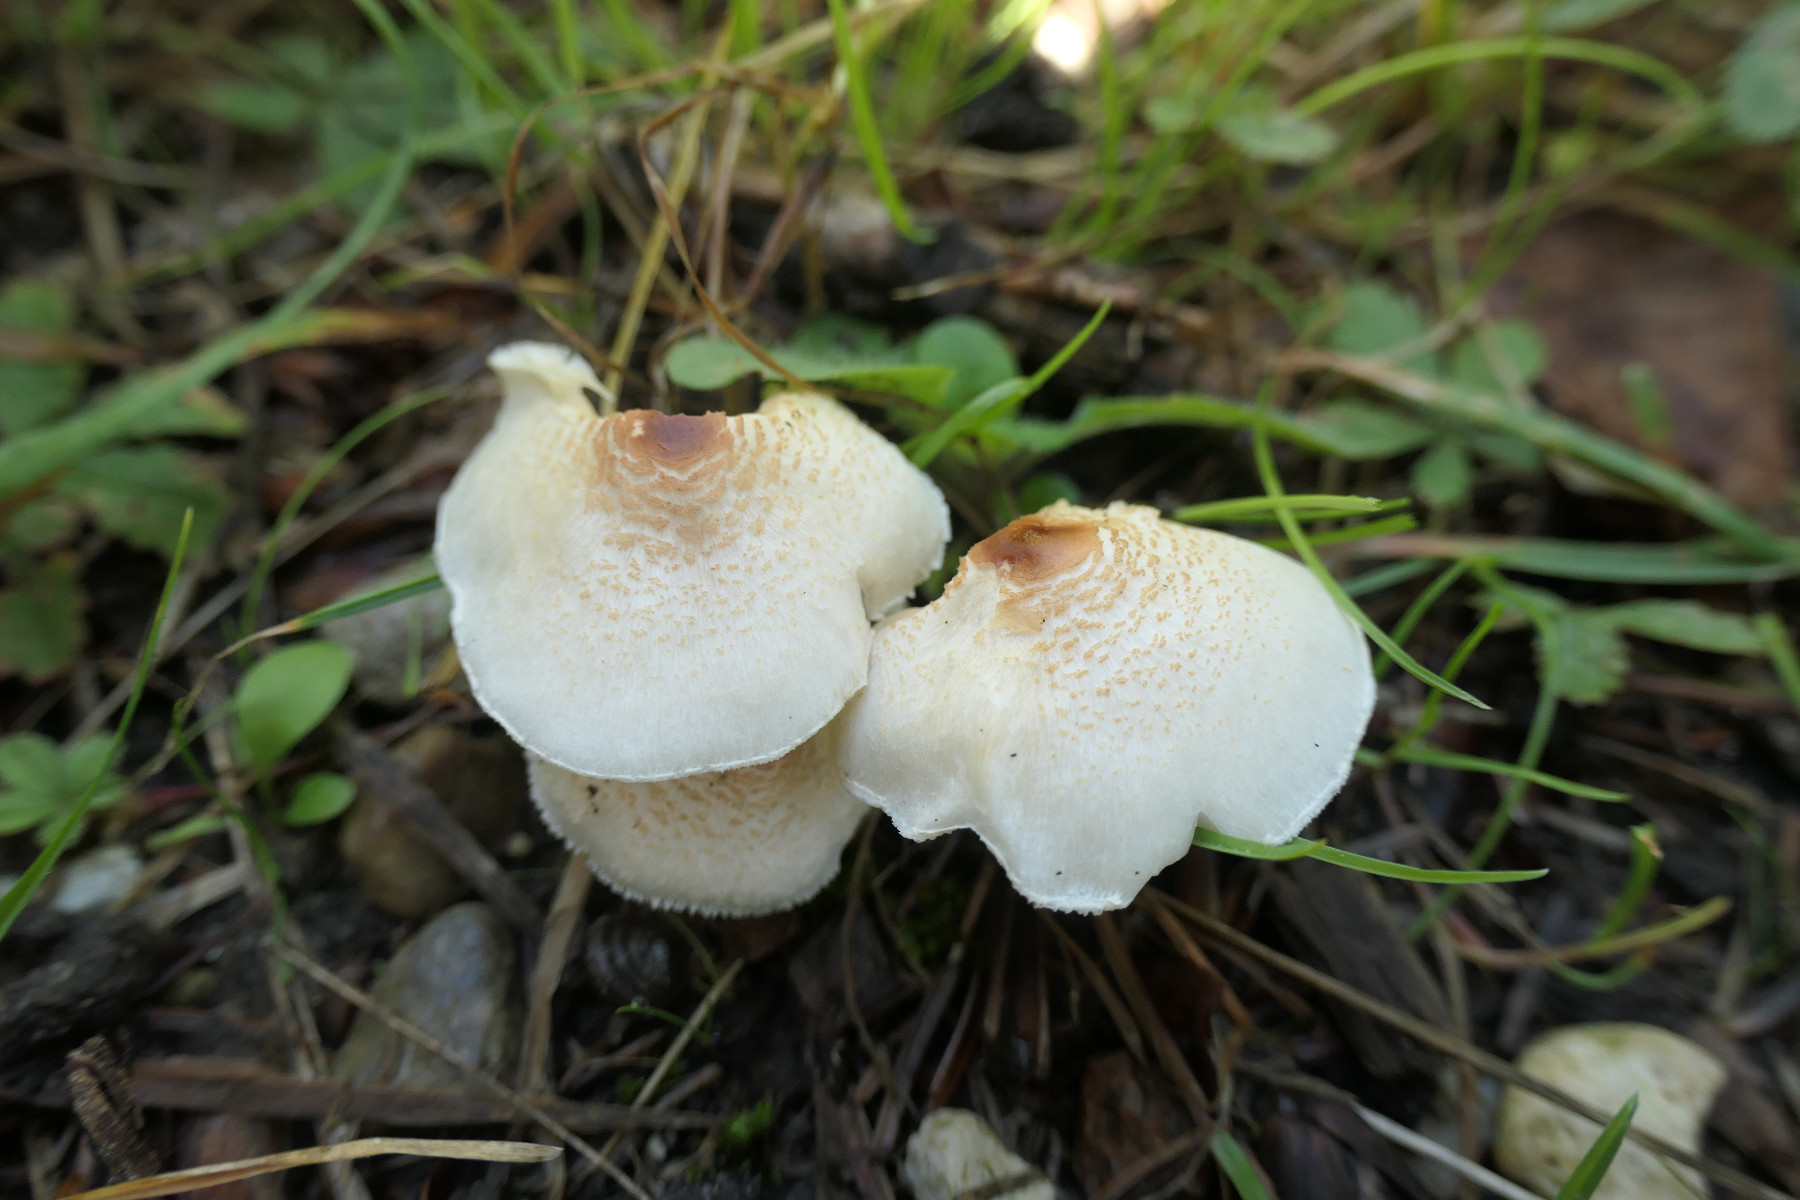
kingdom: Fungi
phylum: Basidiomycota
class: Agaricomycetes
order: Agaricales
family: Agaricaceae
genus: Lepiota
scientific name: Lepiota cristata
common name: stinkende parasolhat
